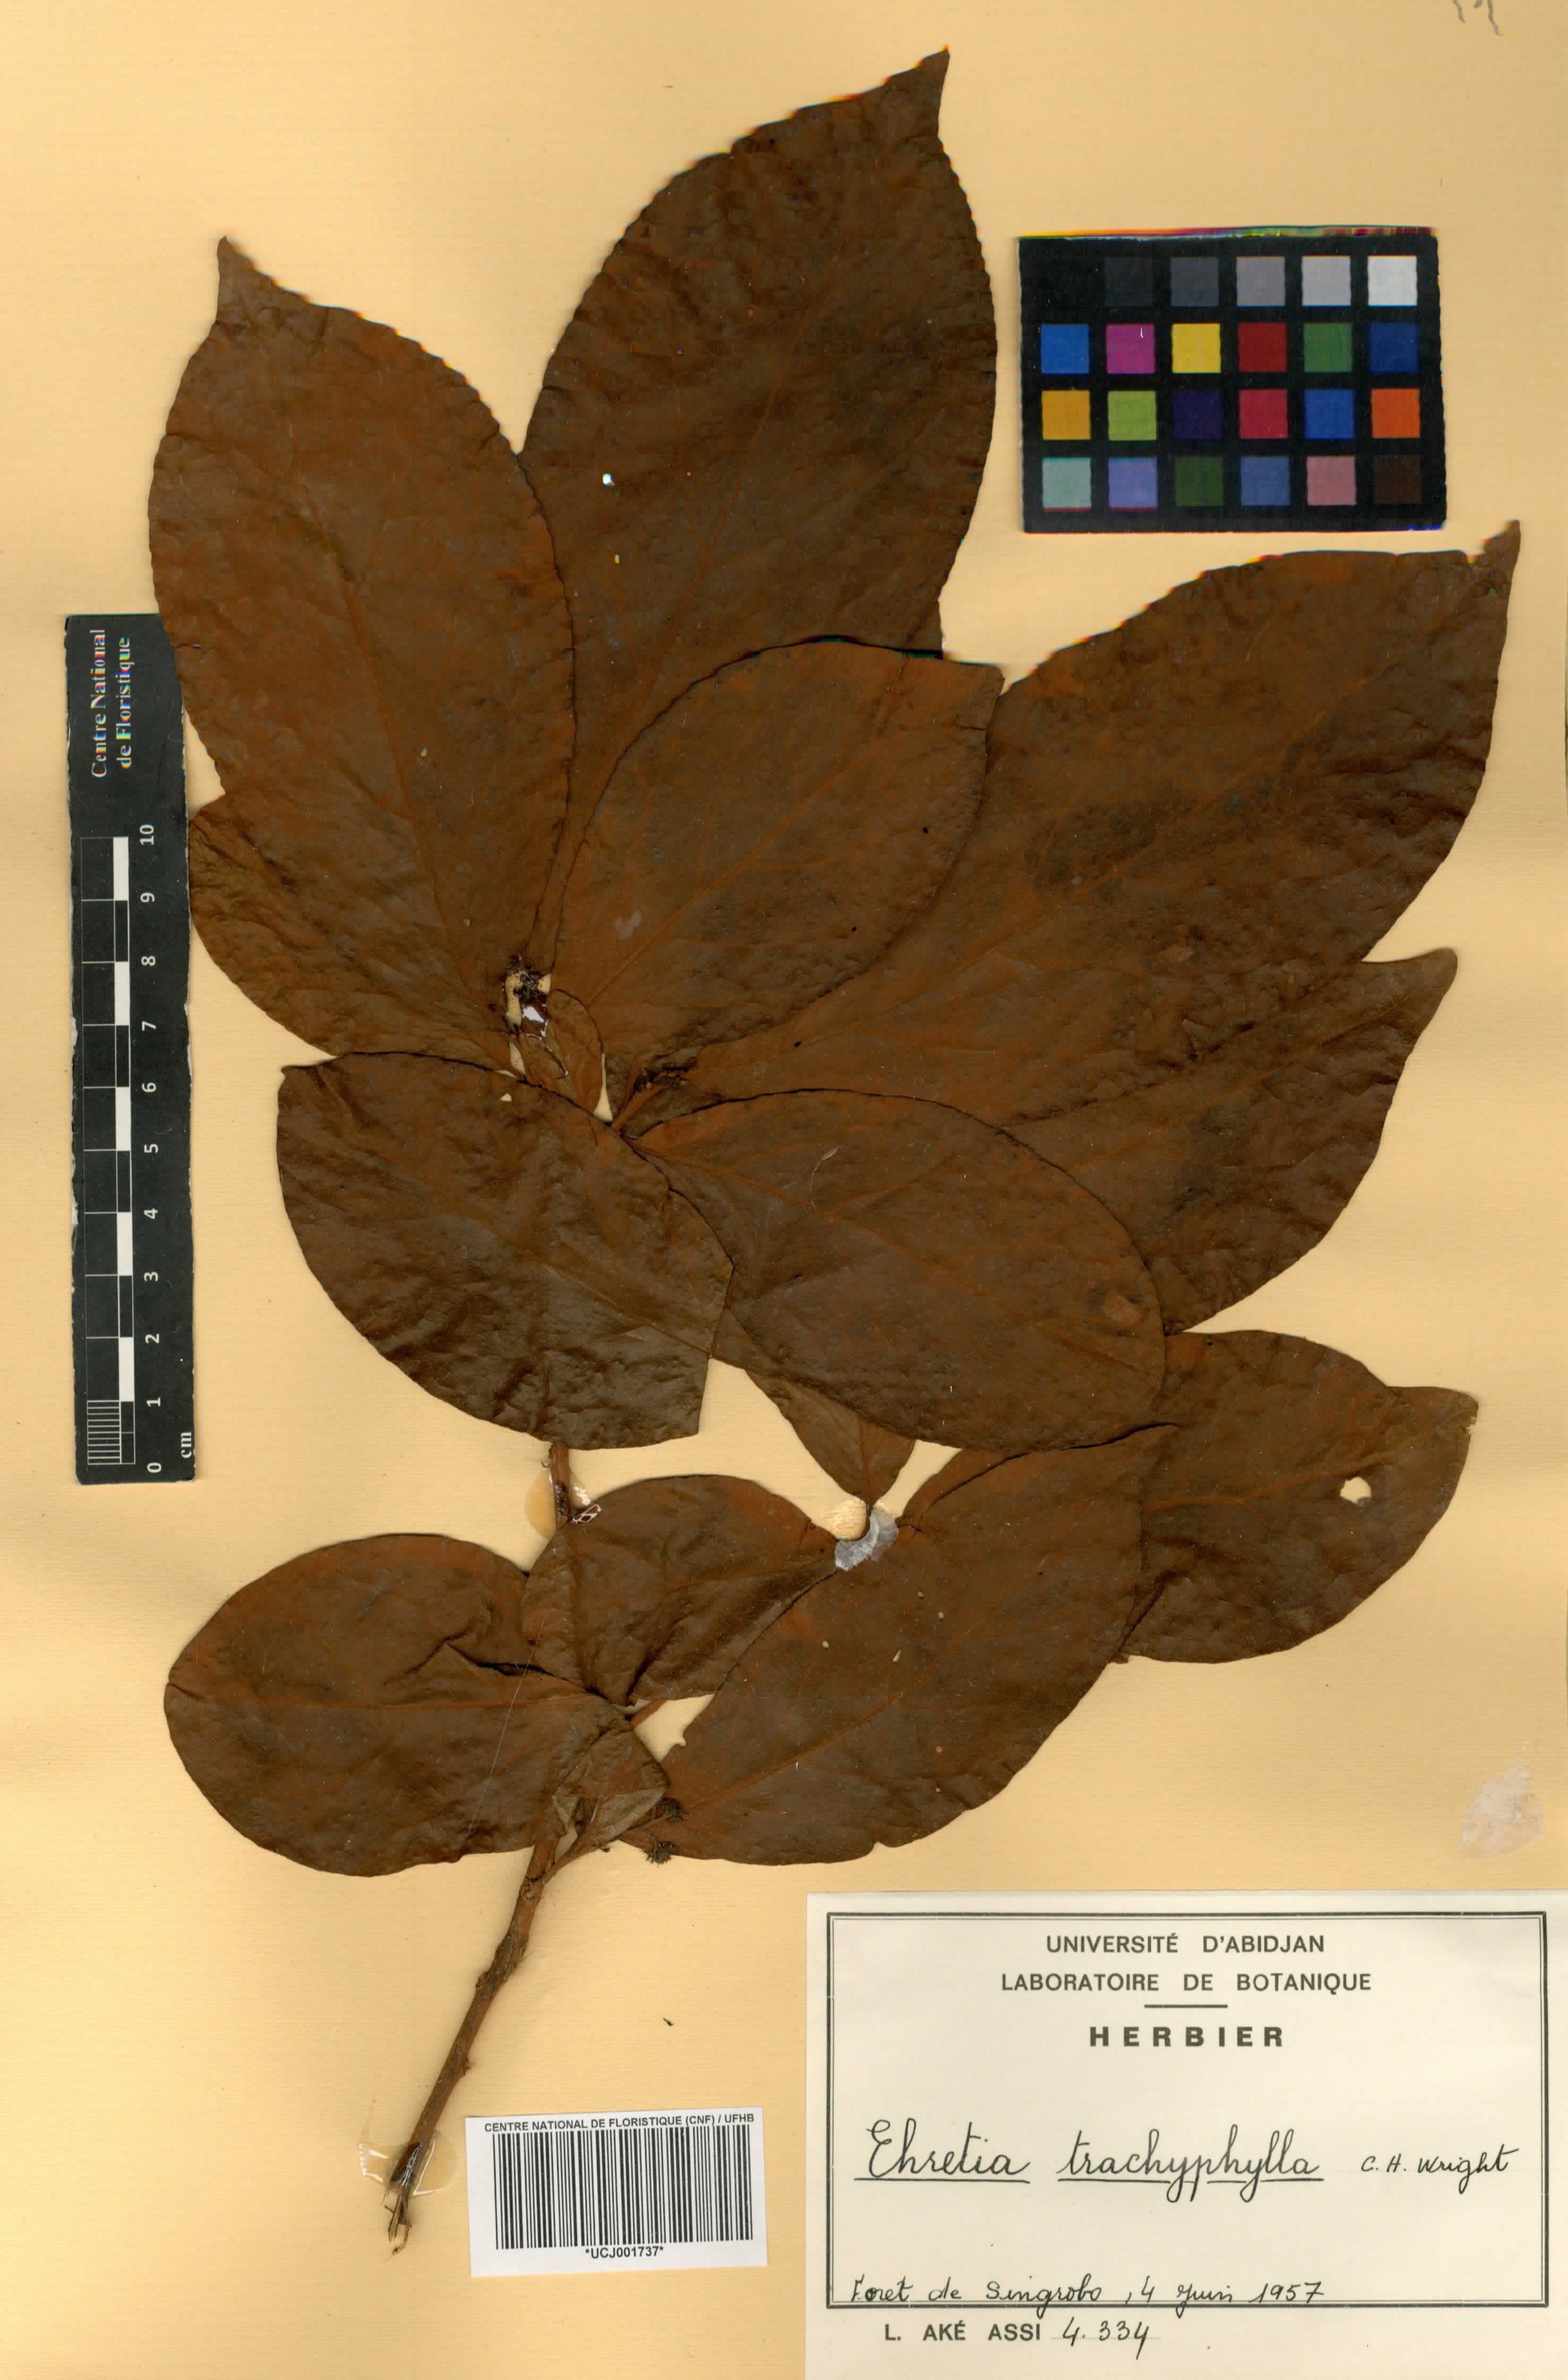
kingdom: Plantae
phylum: Tracheophyta
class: Magnoliopsida
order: Boraginales
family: Ehretiaceae
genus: Ehretia
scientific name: Ehretia trachyphylla
